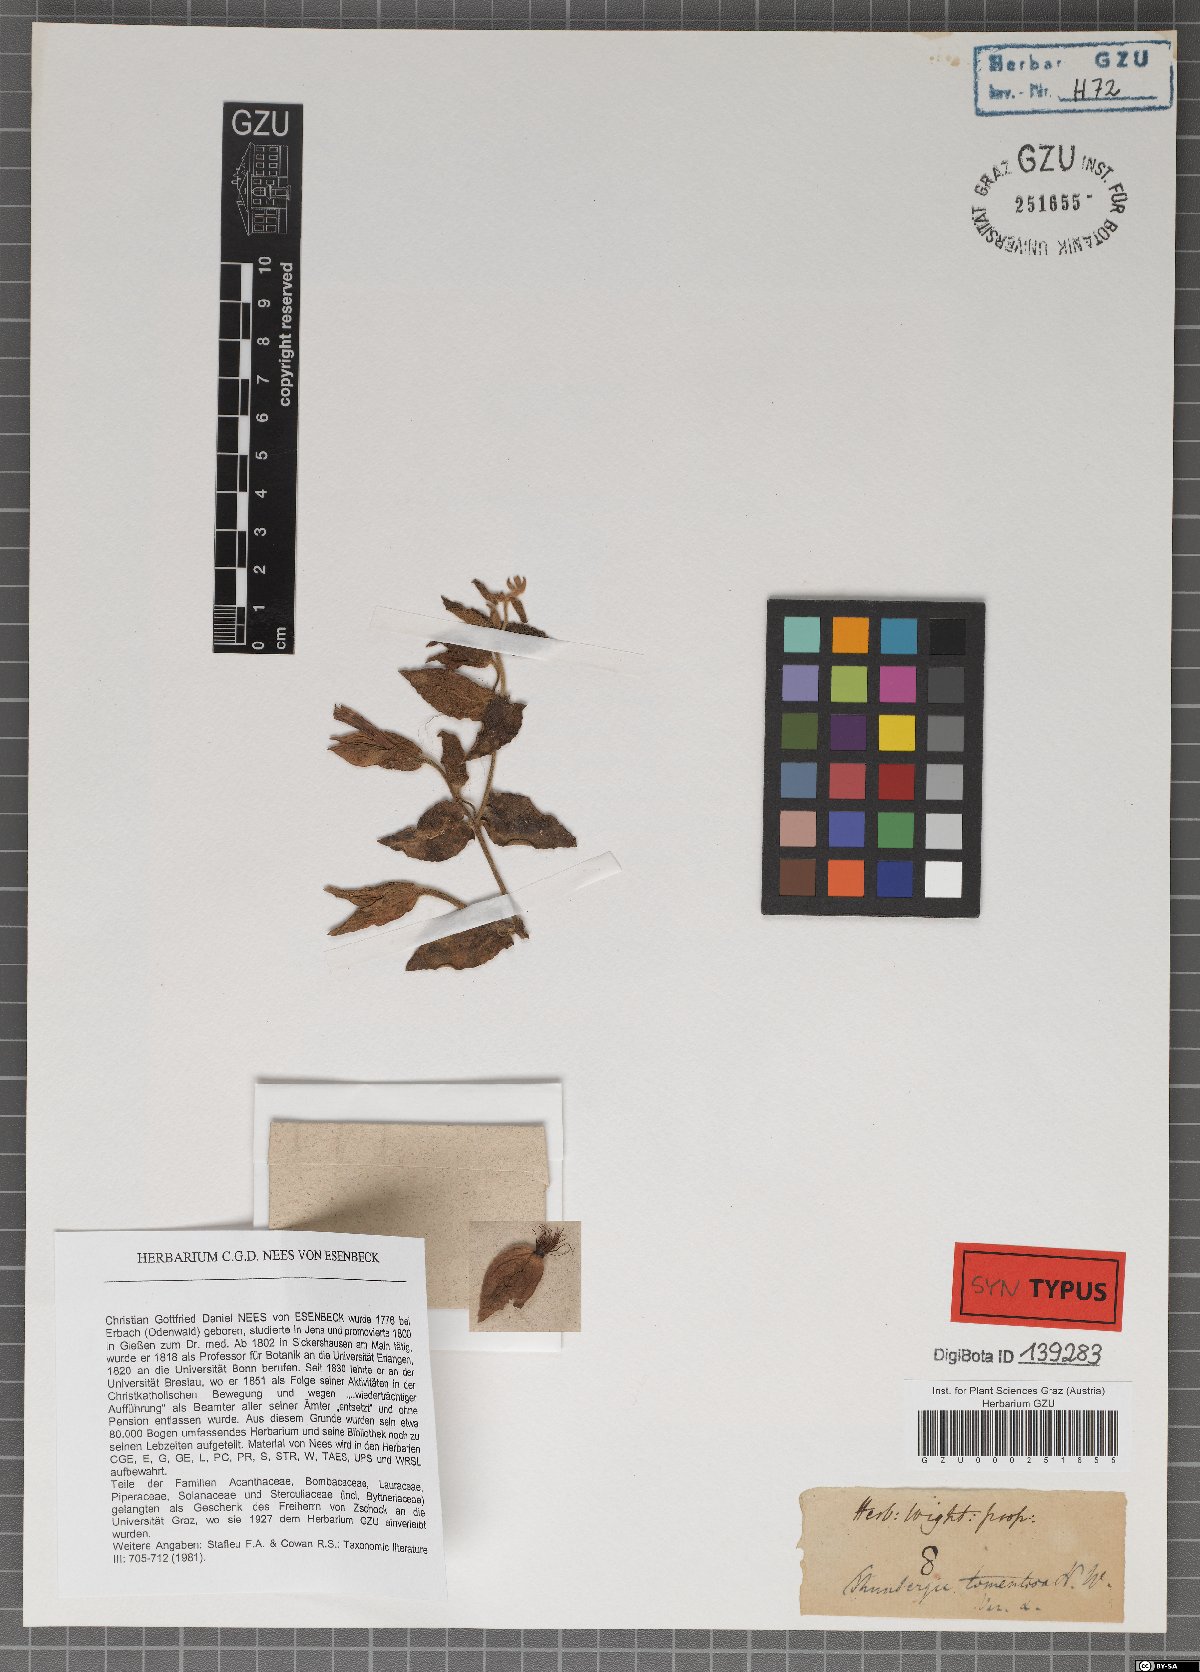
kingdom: Plantae
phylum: Tracheophyta
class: Magnoliopsida
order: Lamiales
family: Acanthaceae
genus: Thunbergia
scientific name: Thunbergia laevis
